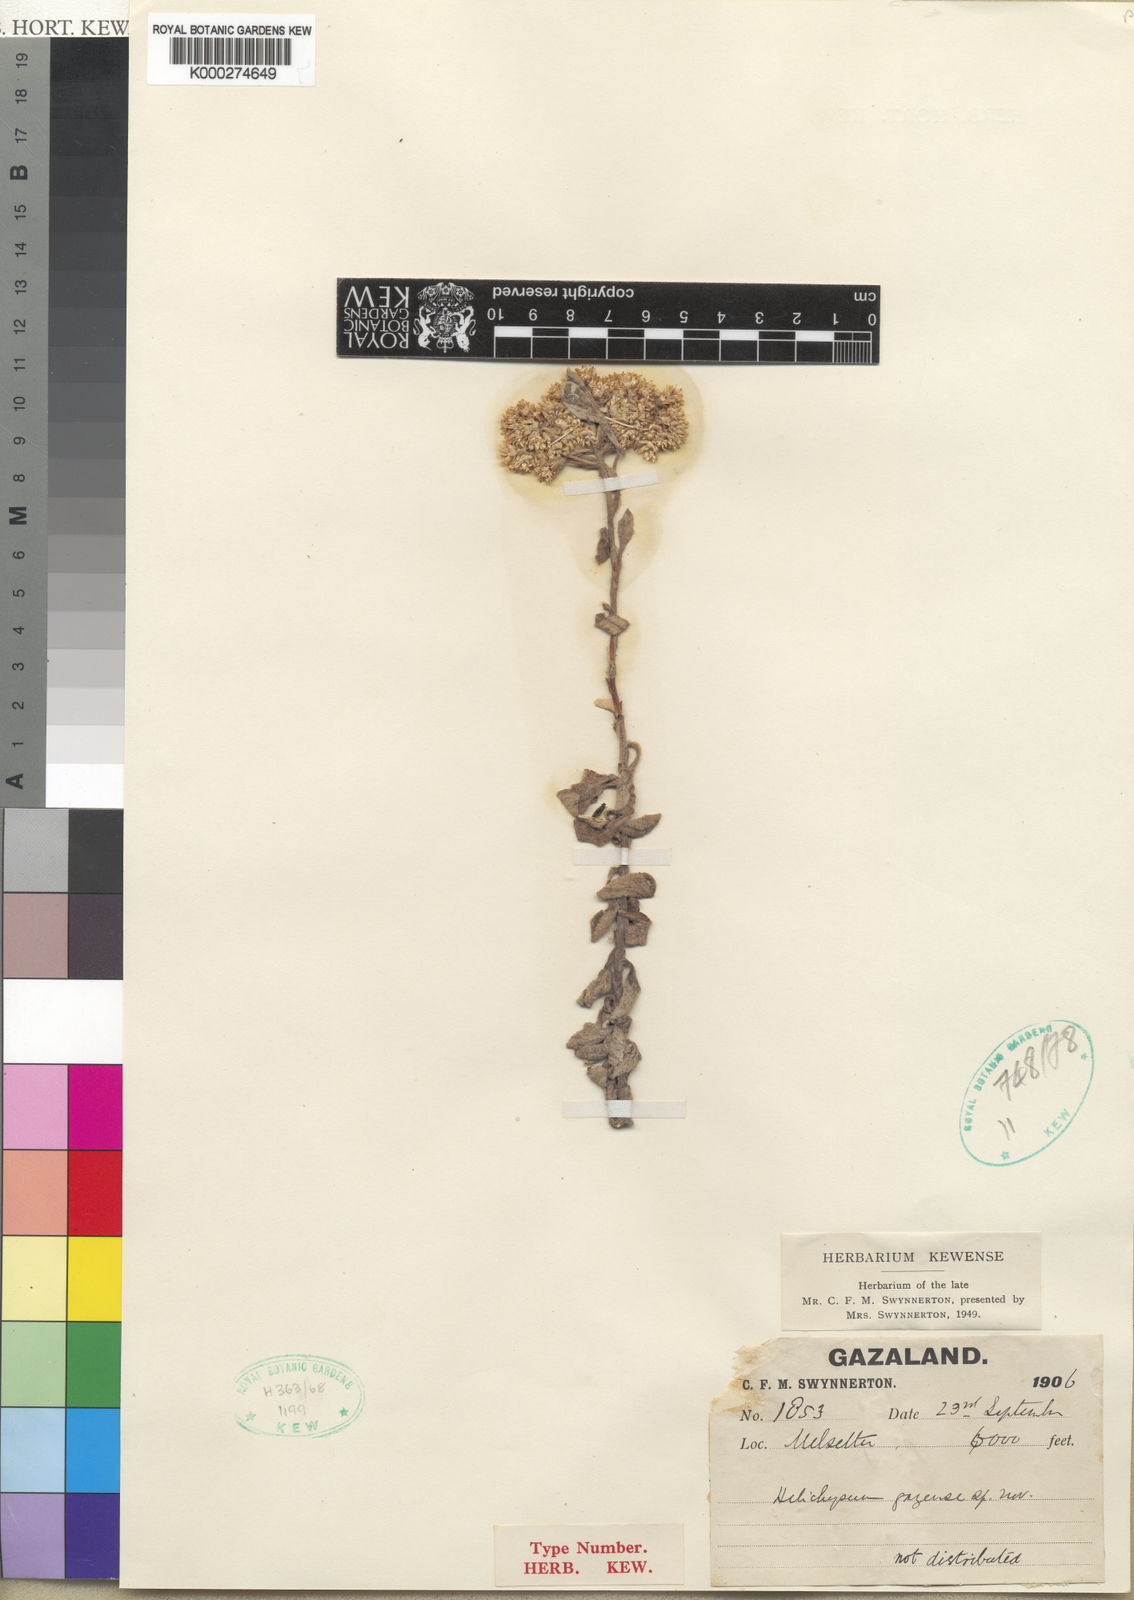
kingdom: Plantae
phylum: Tracheophyta
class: Magnoliopsida
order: Asterales
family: Asteraceae
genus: Helichrysum
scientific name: Helichrysum lepidissimum
